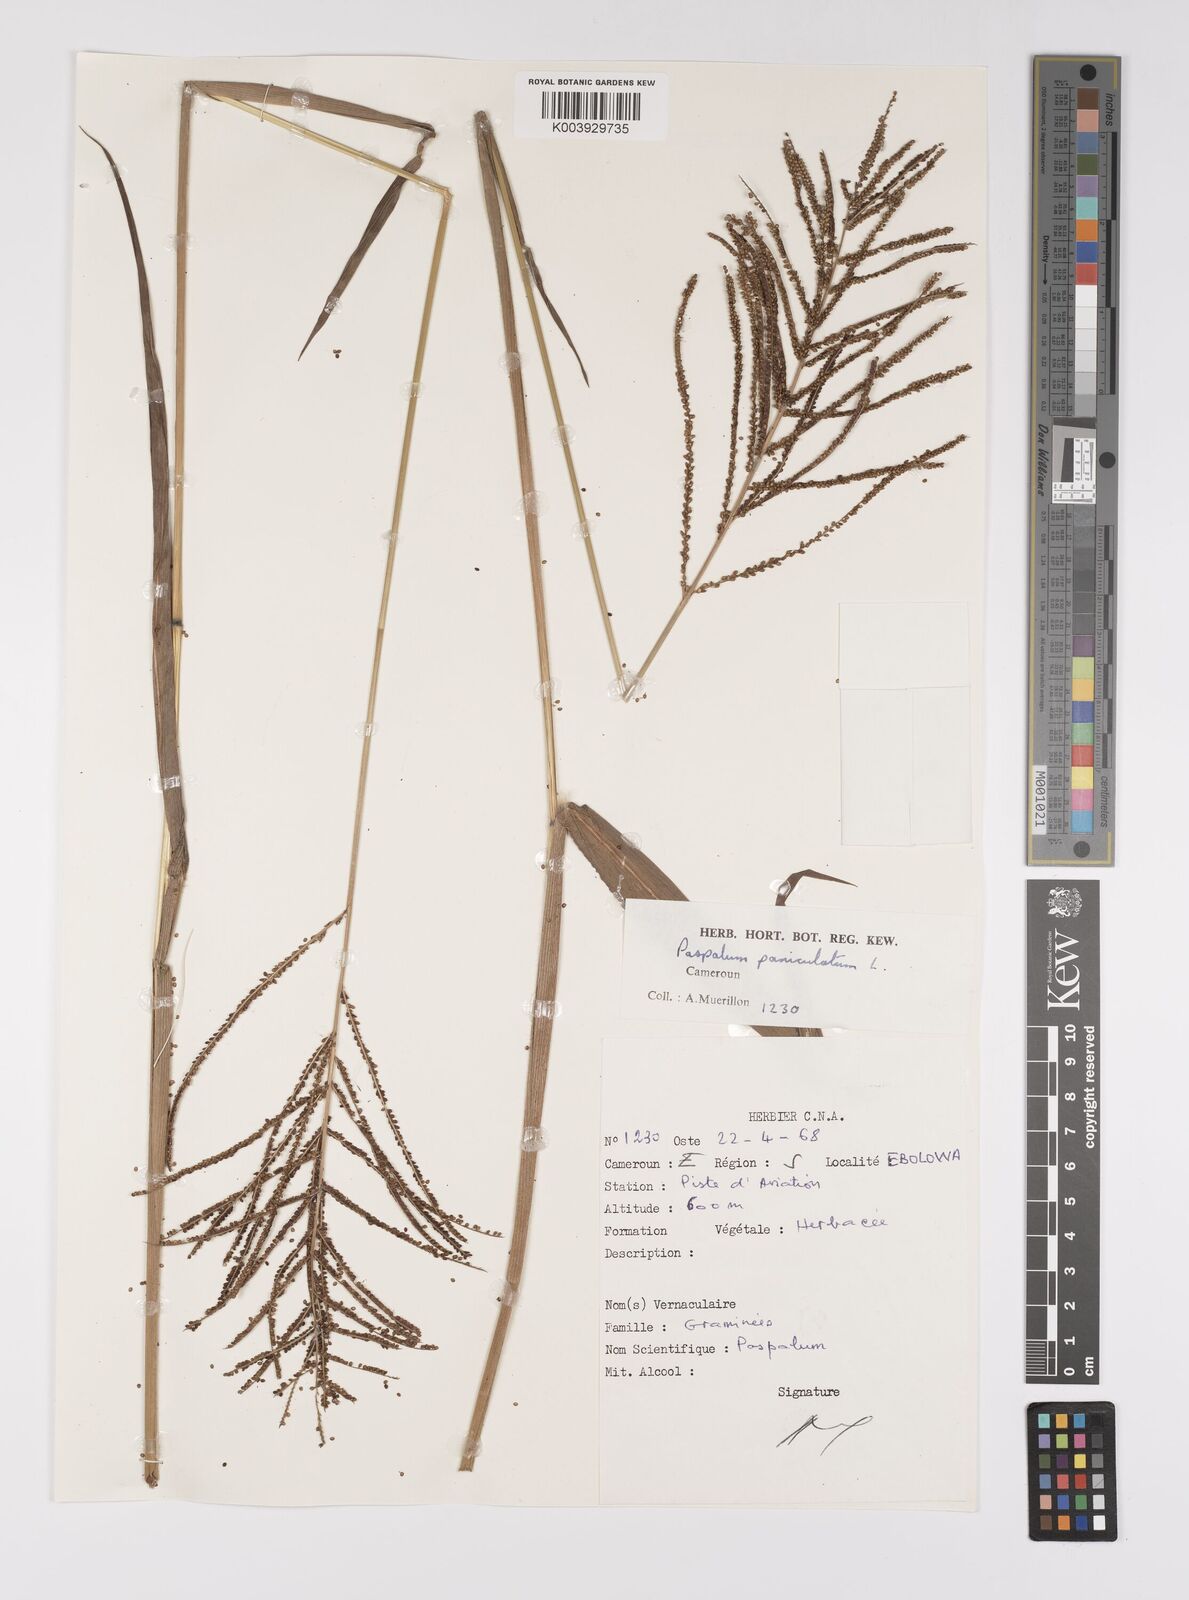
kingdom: Plantae
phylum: Tracheophyta
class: Liliopsida
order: Poales
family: Poaceae
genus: Paspalum
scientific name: Paspalum paniculatum
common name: Arrocillo
